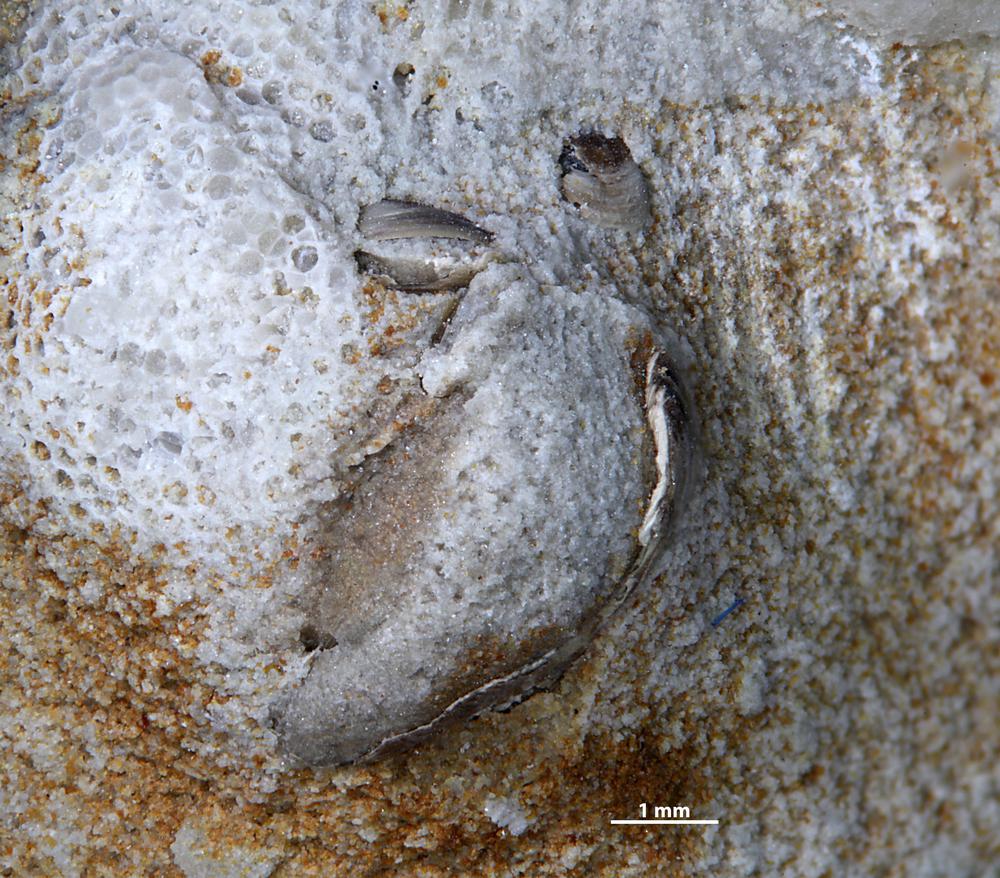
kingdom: Animalia
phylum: Brachiopoda
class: Lingulata
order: Lingulida
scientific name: Lingulida
